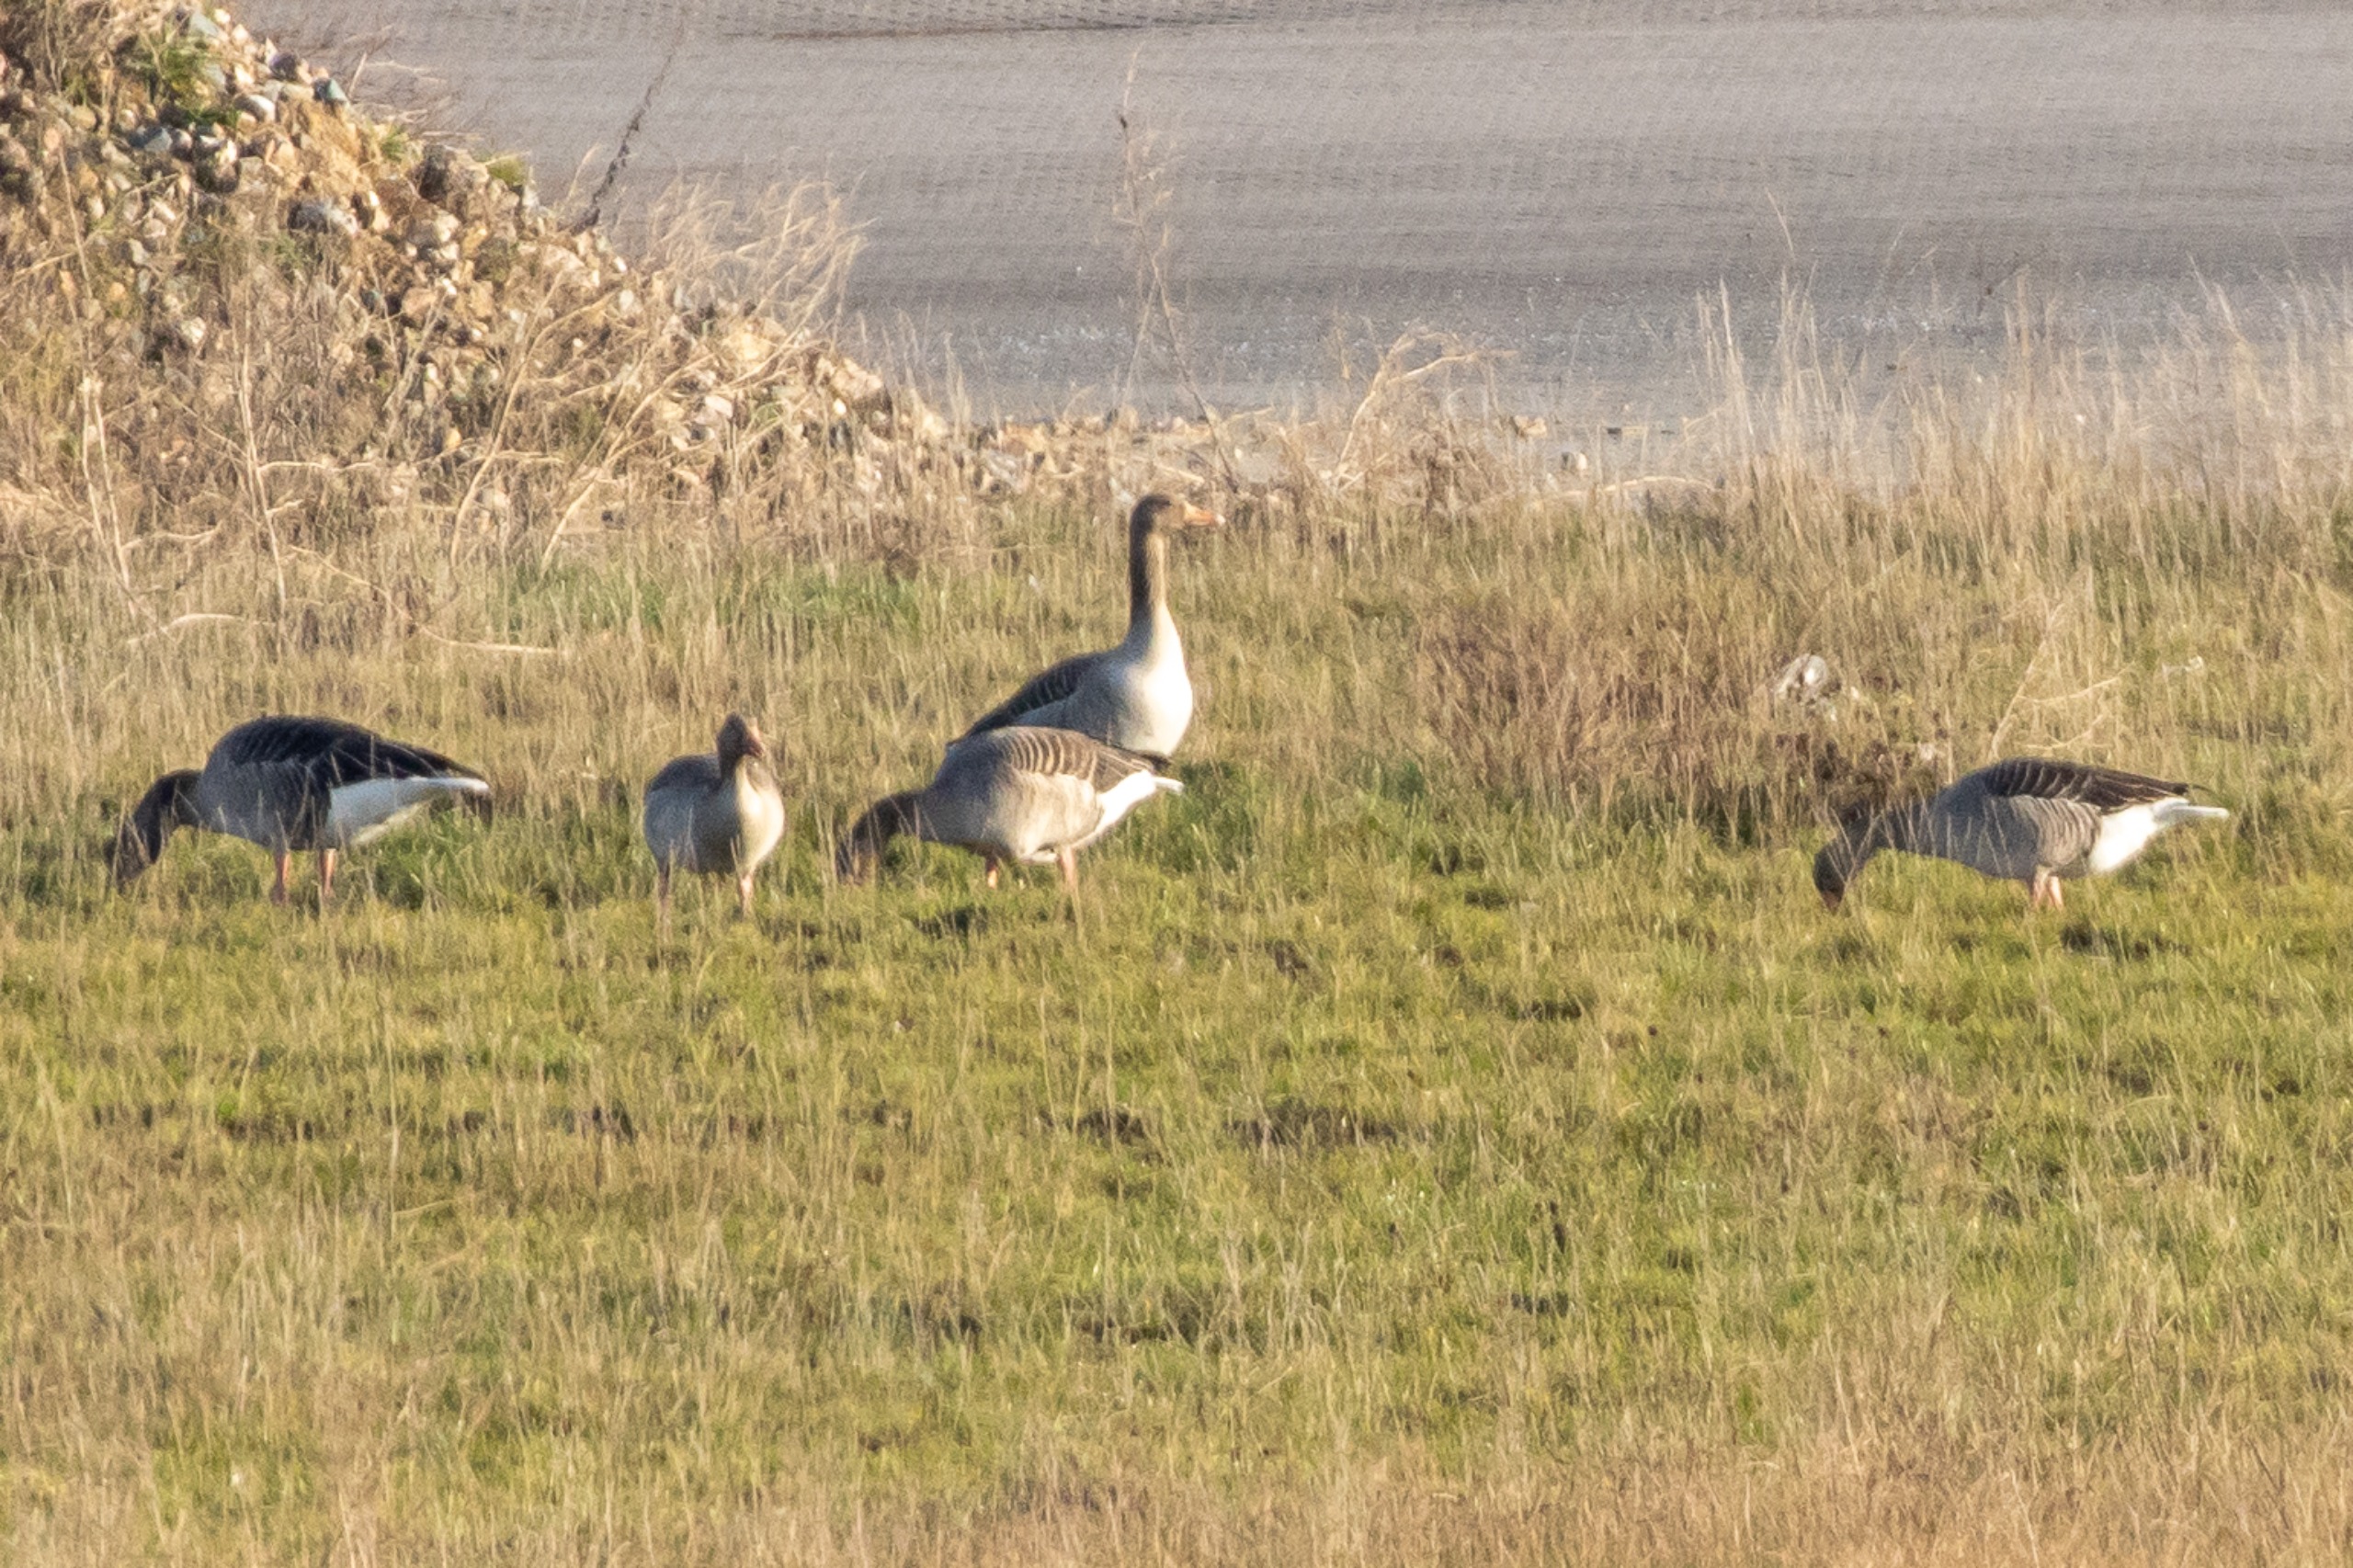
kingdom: Animalia
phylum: Chordata
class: Aves
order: Anseriformes
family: Anatidae
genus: Anser
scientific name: Anser anser
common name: Grågås
